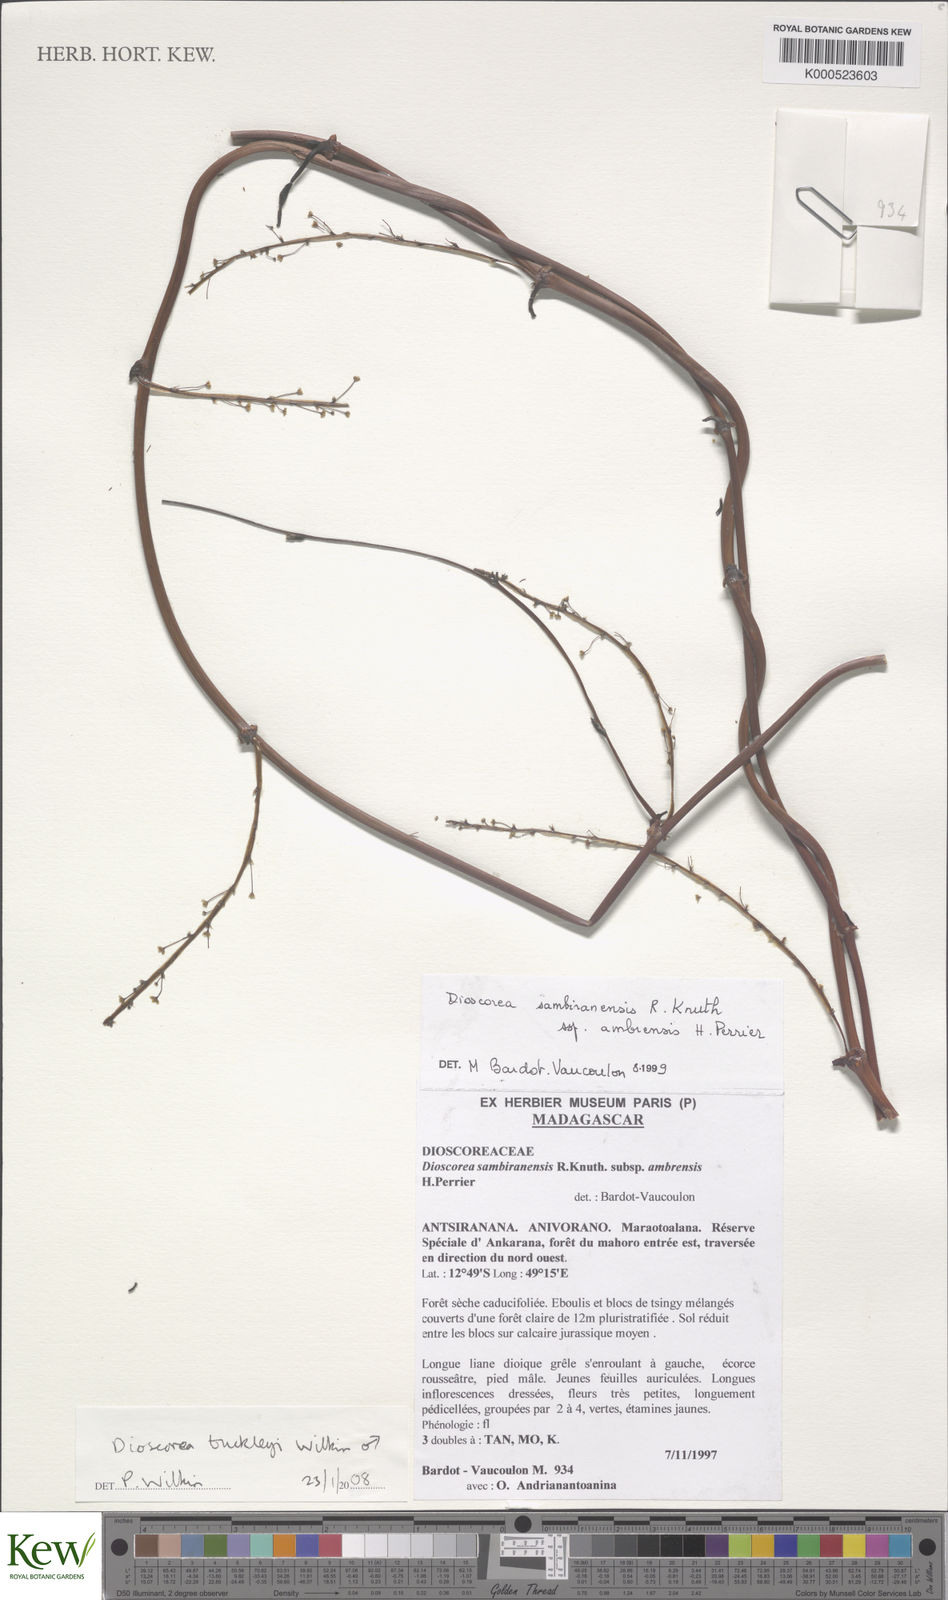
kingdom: Plantae
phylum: Tracheophyta
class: Liliopsida
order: Dioscoreales
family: Dioscoreaceae
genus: Dioscorea
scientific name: Dioscorea buckleyana
